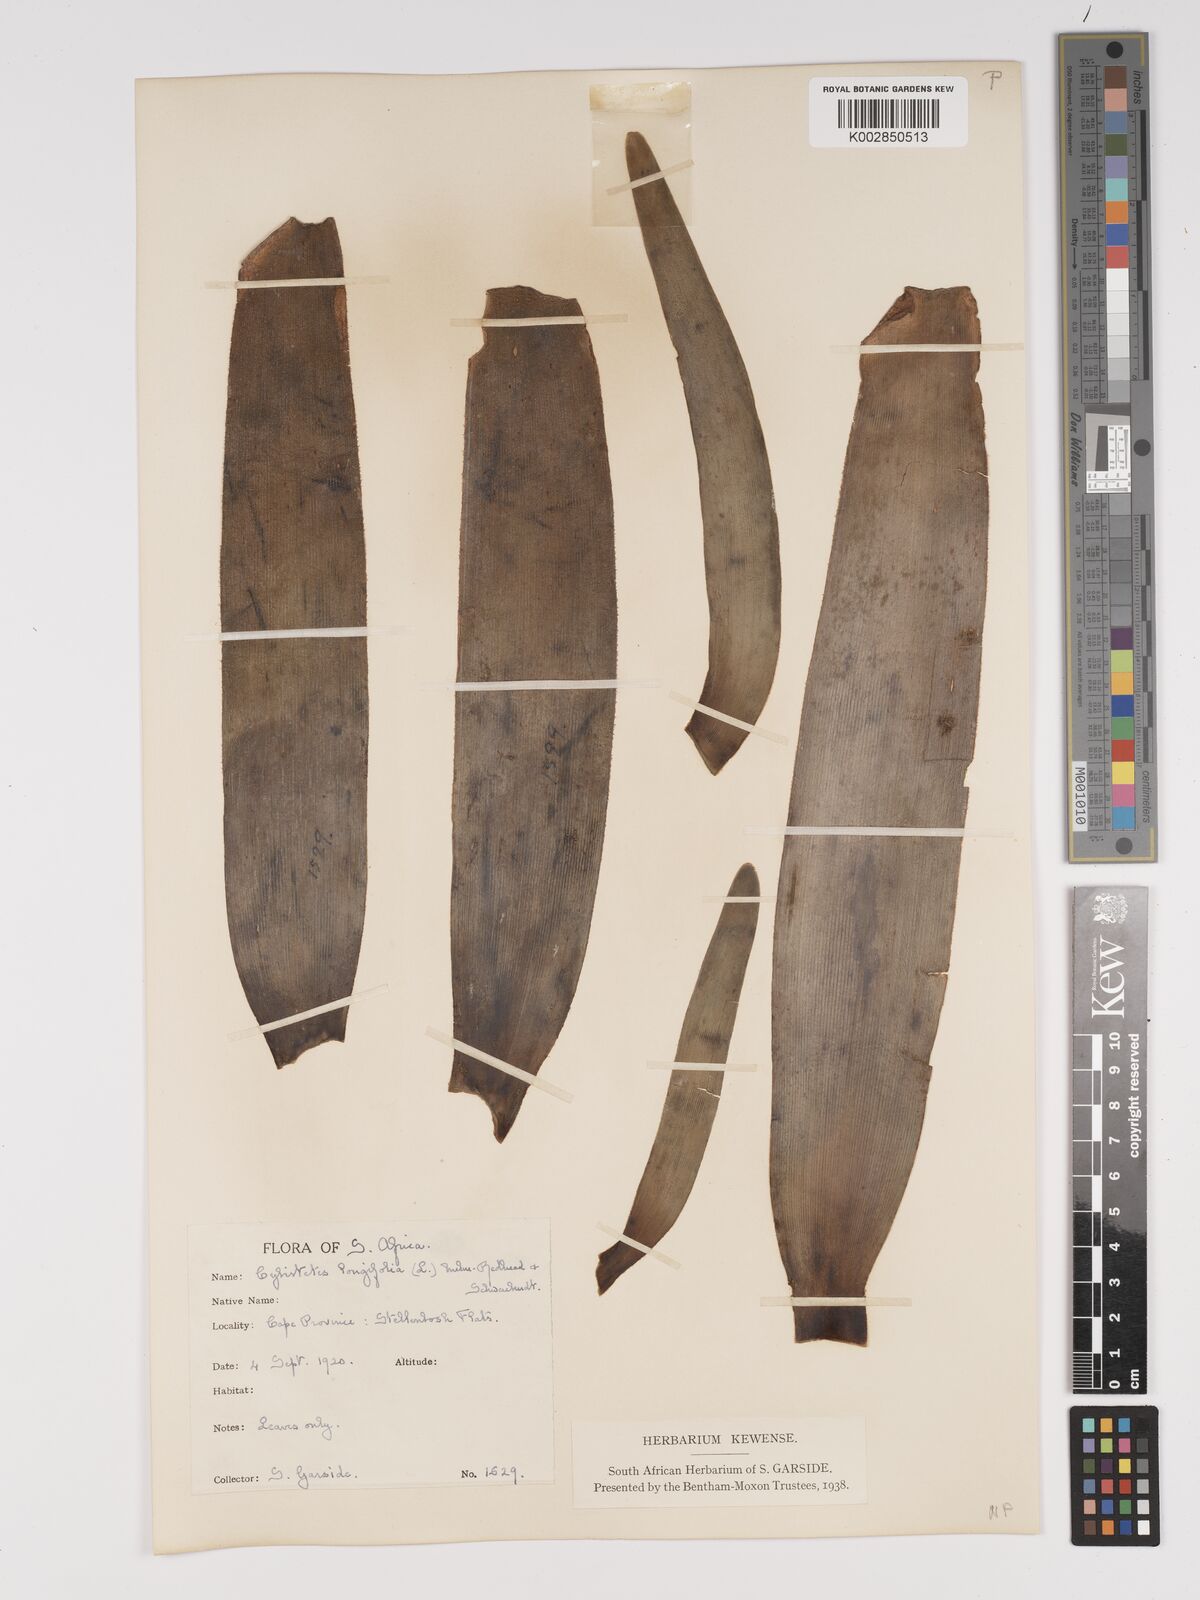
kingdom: Plantae
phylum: Tracheophyta
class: Liliopsida
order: Asparagales
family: Amaryllidaceae
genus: Ammocharis
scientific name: Ammocharis longifolia
